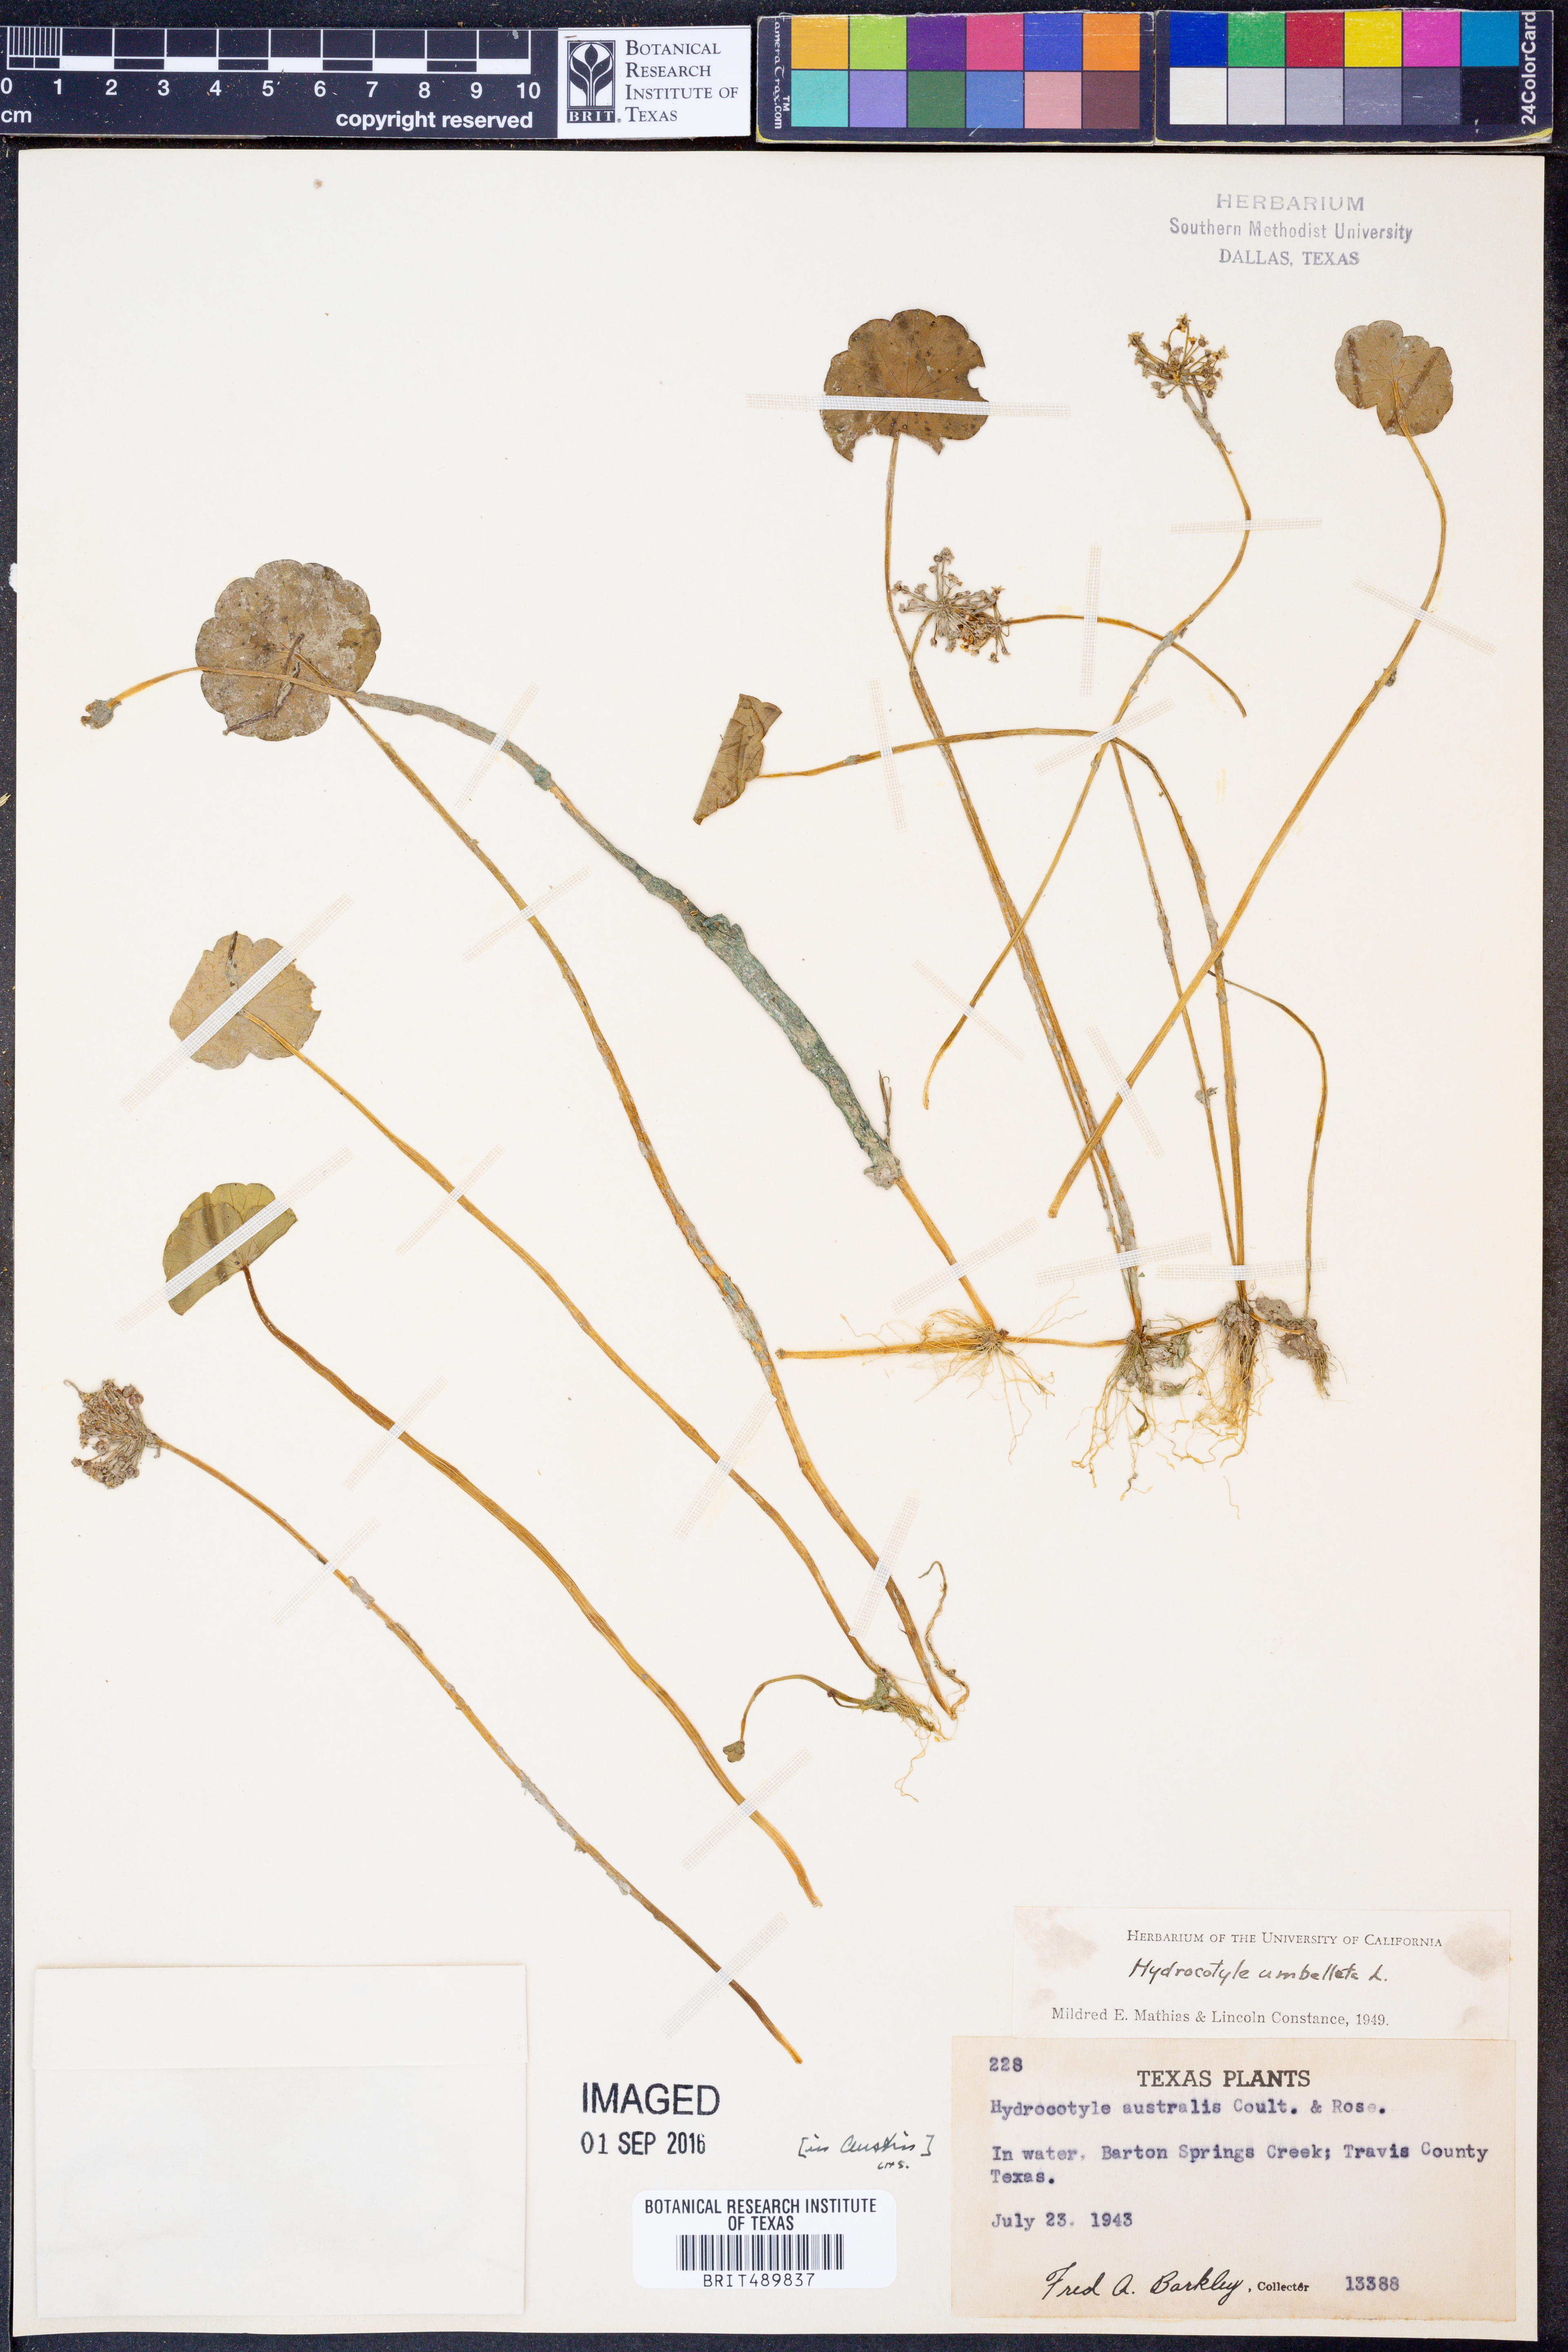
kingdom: Plantae
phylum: Tracheophyta
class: Magnoliopsida
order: Apiales
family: Araliaceae
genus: Hydrocotyle
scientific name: Hydrocotyle umbellata
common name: Water pennywort
